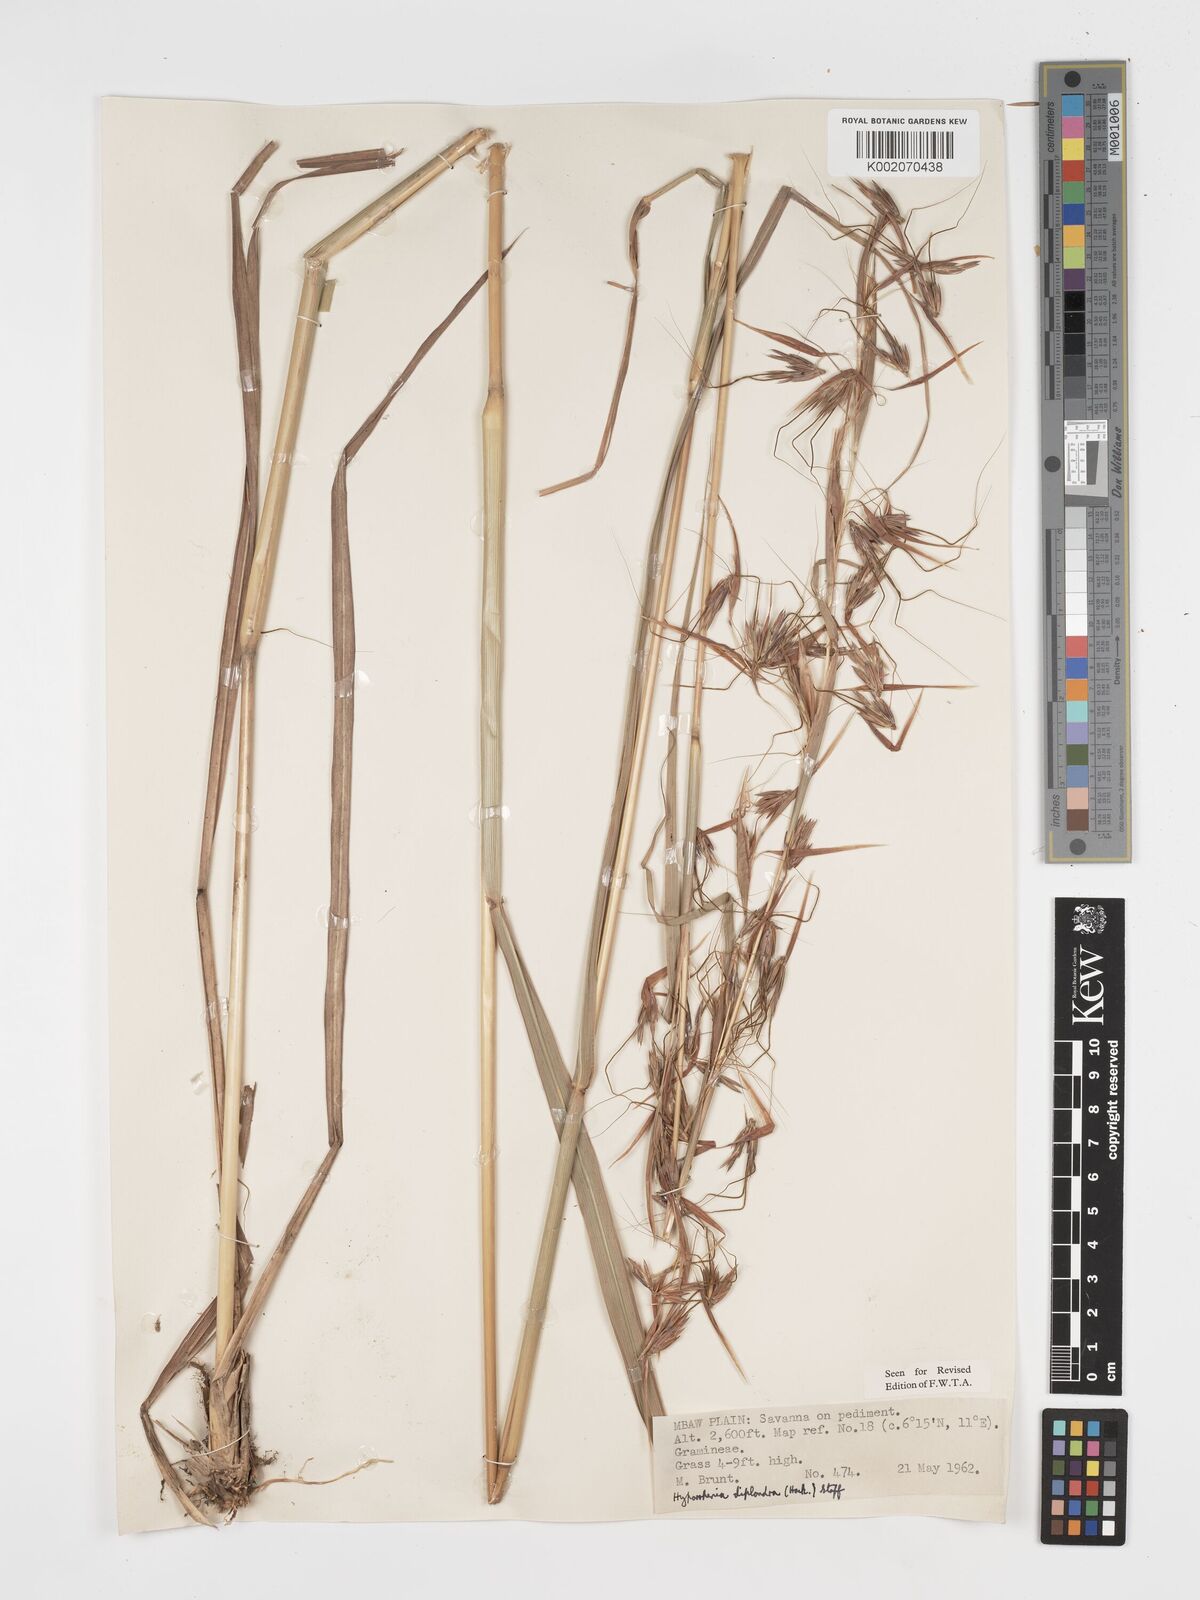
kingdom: Plantae
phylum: Tracheophyta
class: Liliopsida
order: Poales
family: Poaceae
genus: Hyparrhenia
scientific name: Hyparrhenia diplandra
